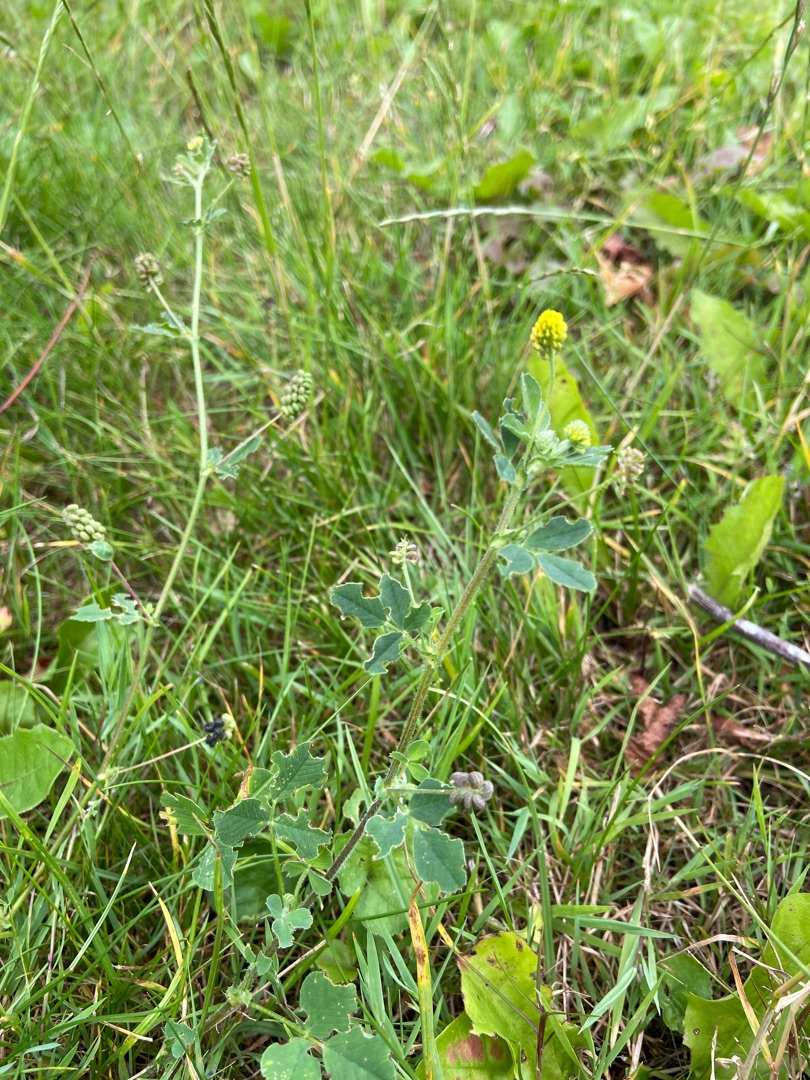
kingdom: Plantae
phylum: Tracheophyta
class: Magnoliopsida
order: Fabales
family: Fabaceae
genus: Medicago
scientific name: Medicago lupulina
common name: Humle-sneglebælg
